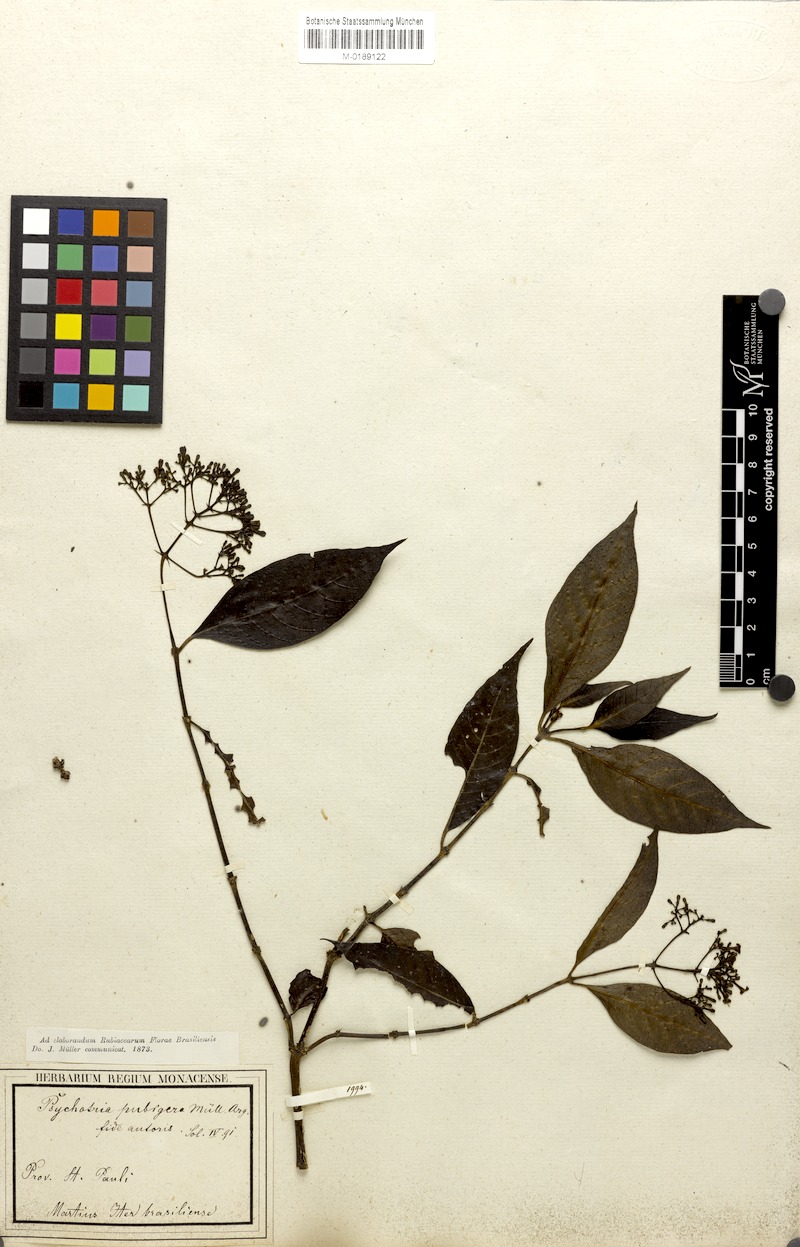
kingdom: Plantae
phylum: Tracheophyta
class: Magnoliopsida
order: Gentianales
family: Rubiaceae
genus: Psychotria
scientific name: Psychotria nemorosa
